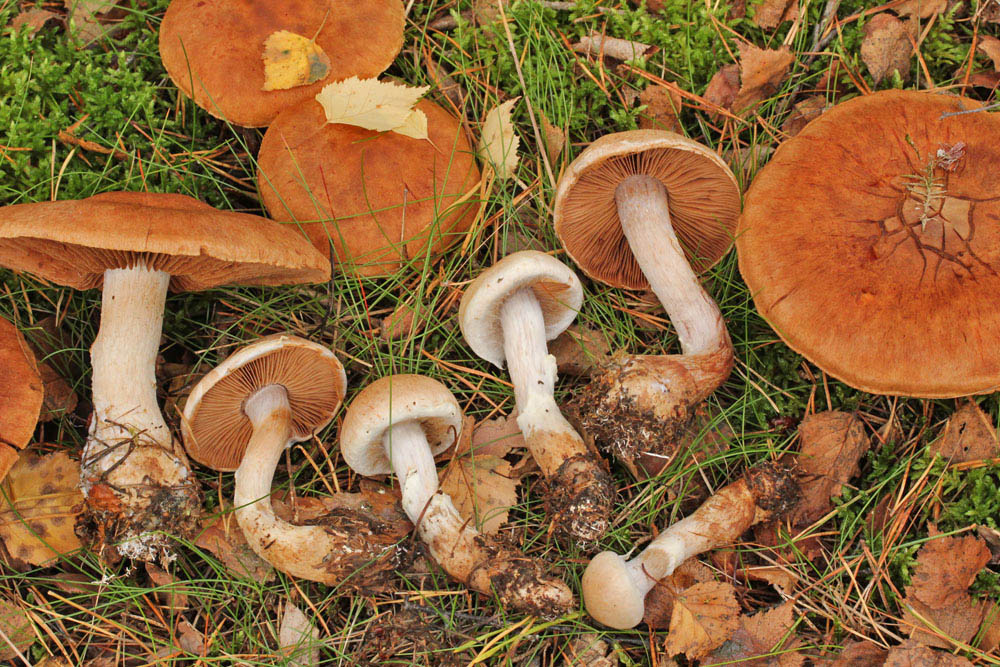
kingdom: Fungi
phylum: Basidiomycota
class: Agaricomycetes
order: Agaricales
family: Cortinariaceae
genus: Cortinarius
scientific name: Cortinarius alborufescens
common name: flosset slørhat
